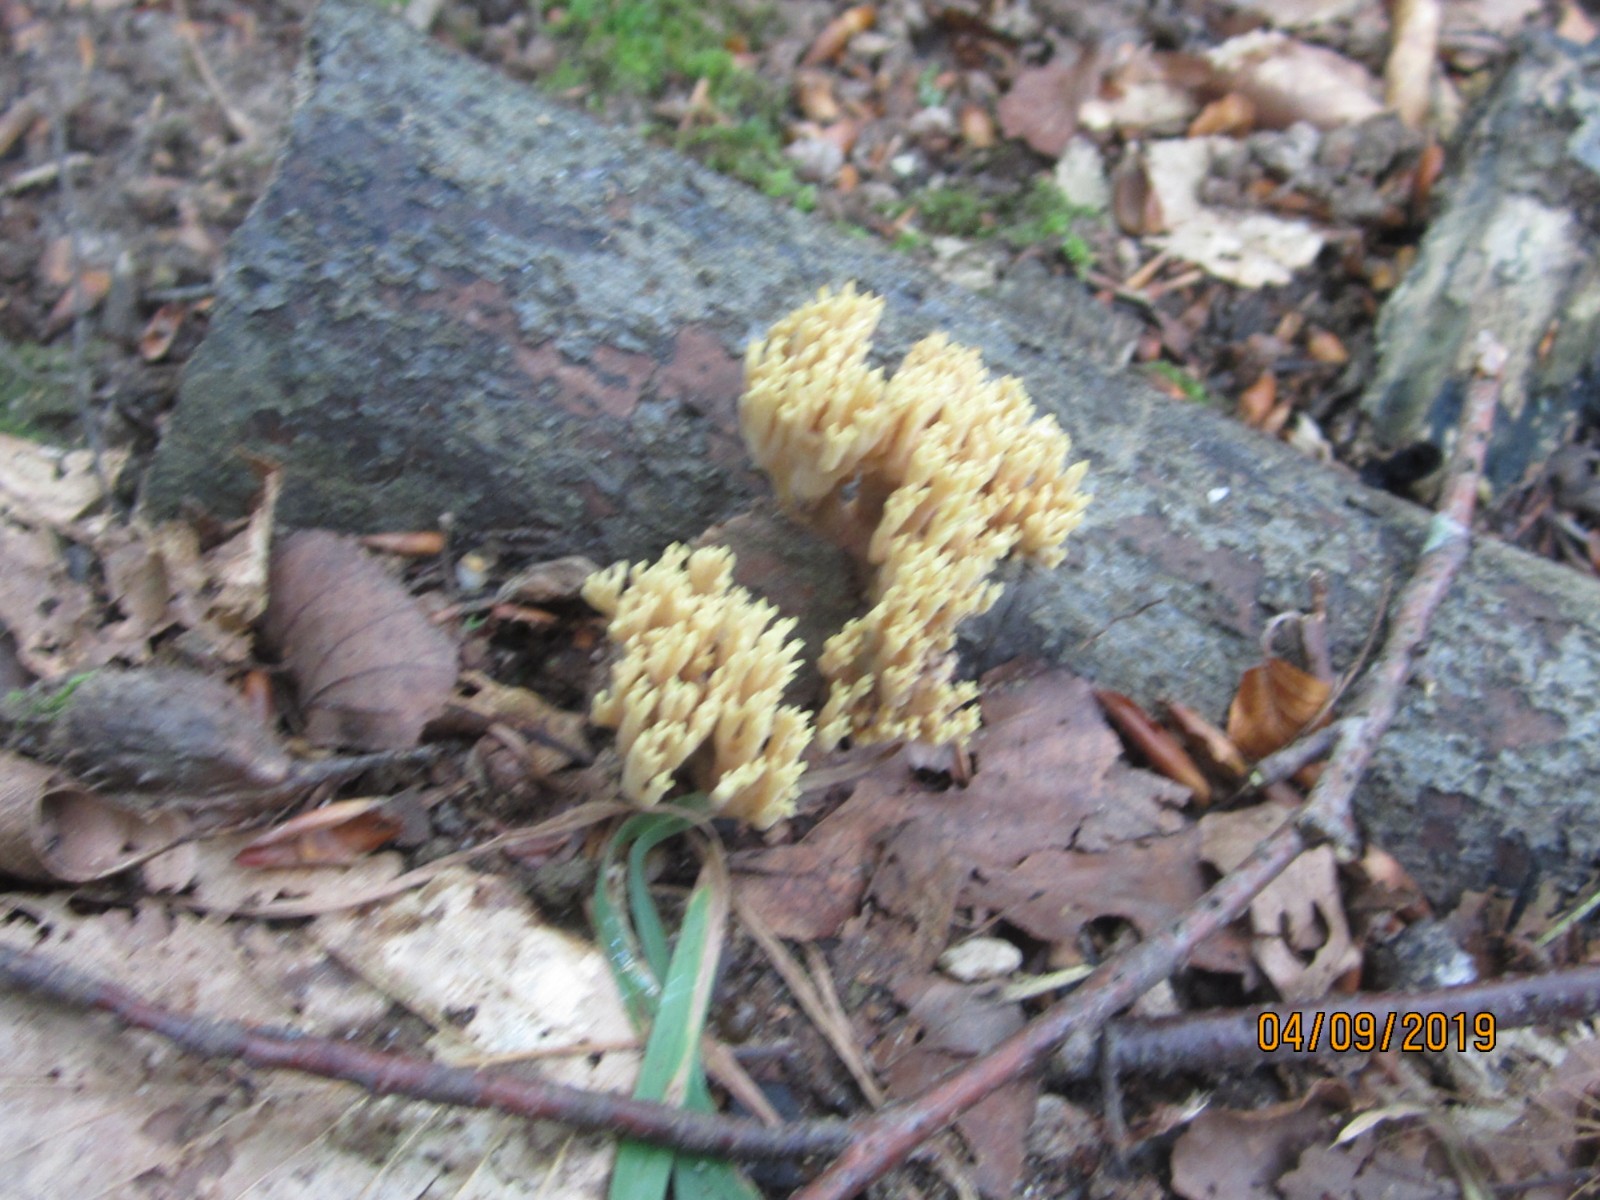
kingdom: Fungi
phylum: Basidiomycota
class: Agaricomycetes
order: Gomphales
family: Gomphaceae
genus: Ramaria
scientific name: Ramaria stricta
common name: rank koralsvamp
